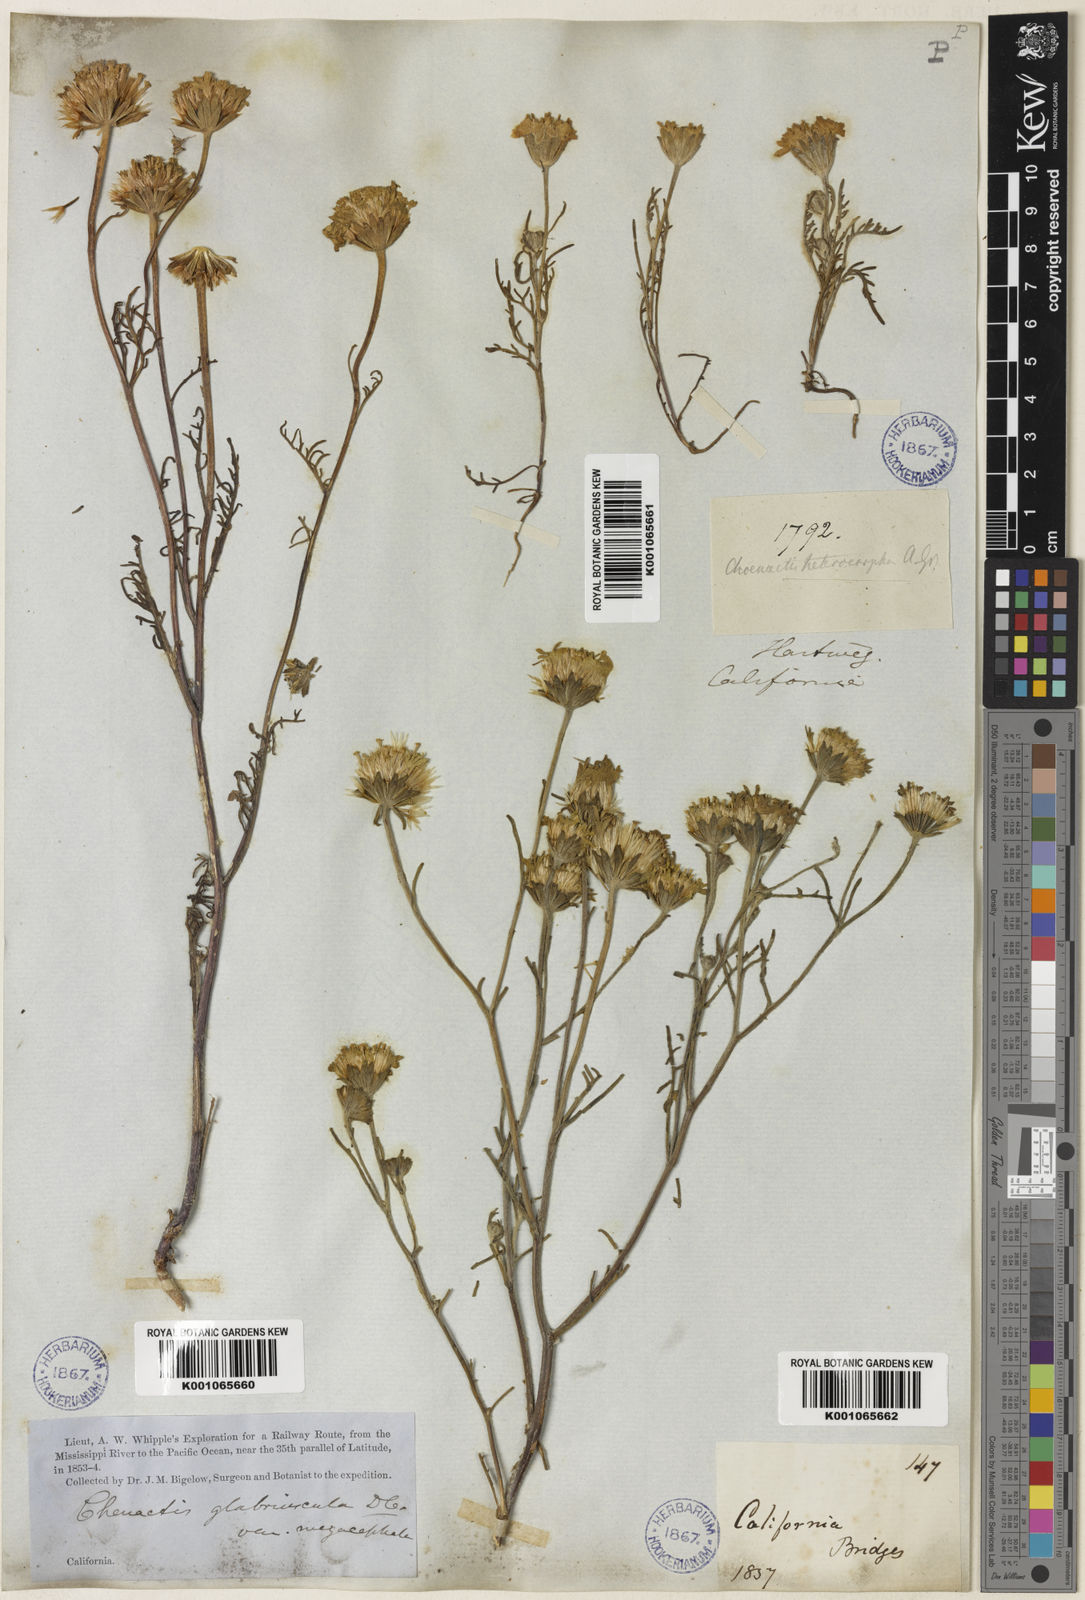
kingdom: Plantae
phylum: Tracheophyta
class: Magnoliopsida
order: Asterales
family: Asteraceae
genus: Chaenactis
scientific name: Chaenactis glabriuscula
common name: Yellow pincushion
